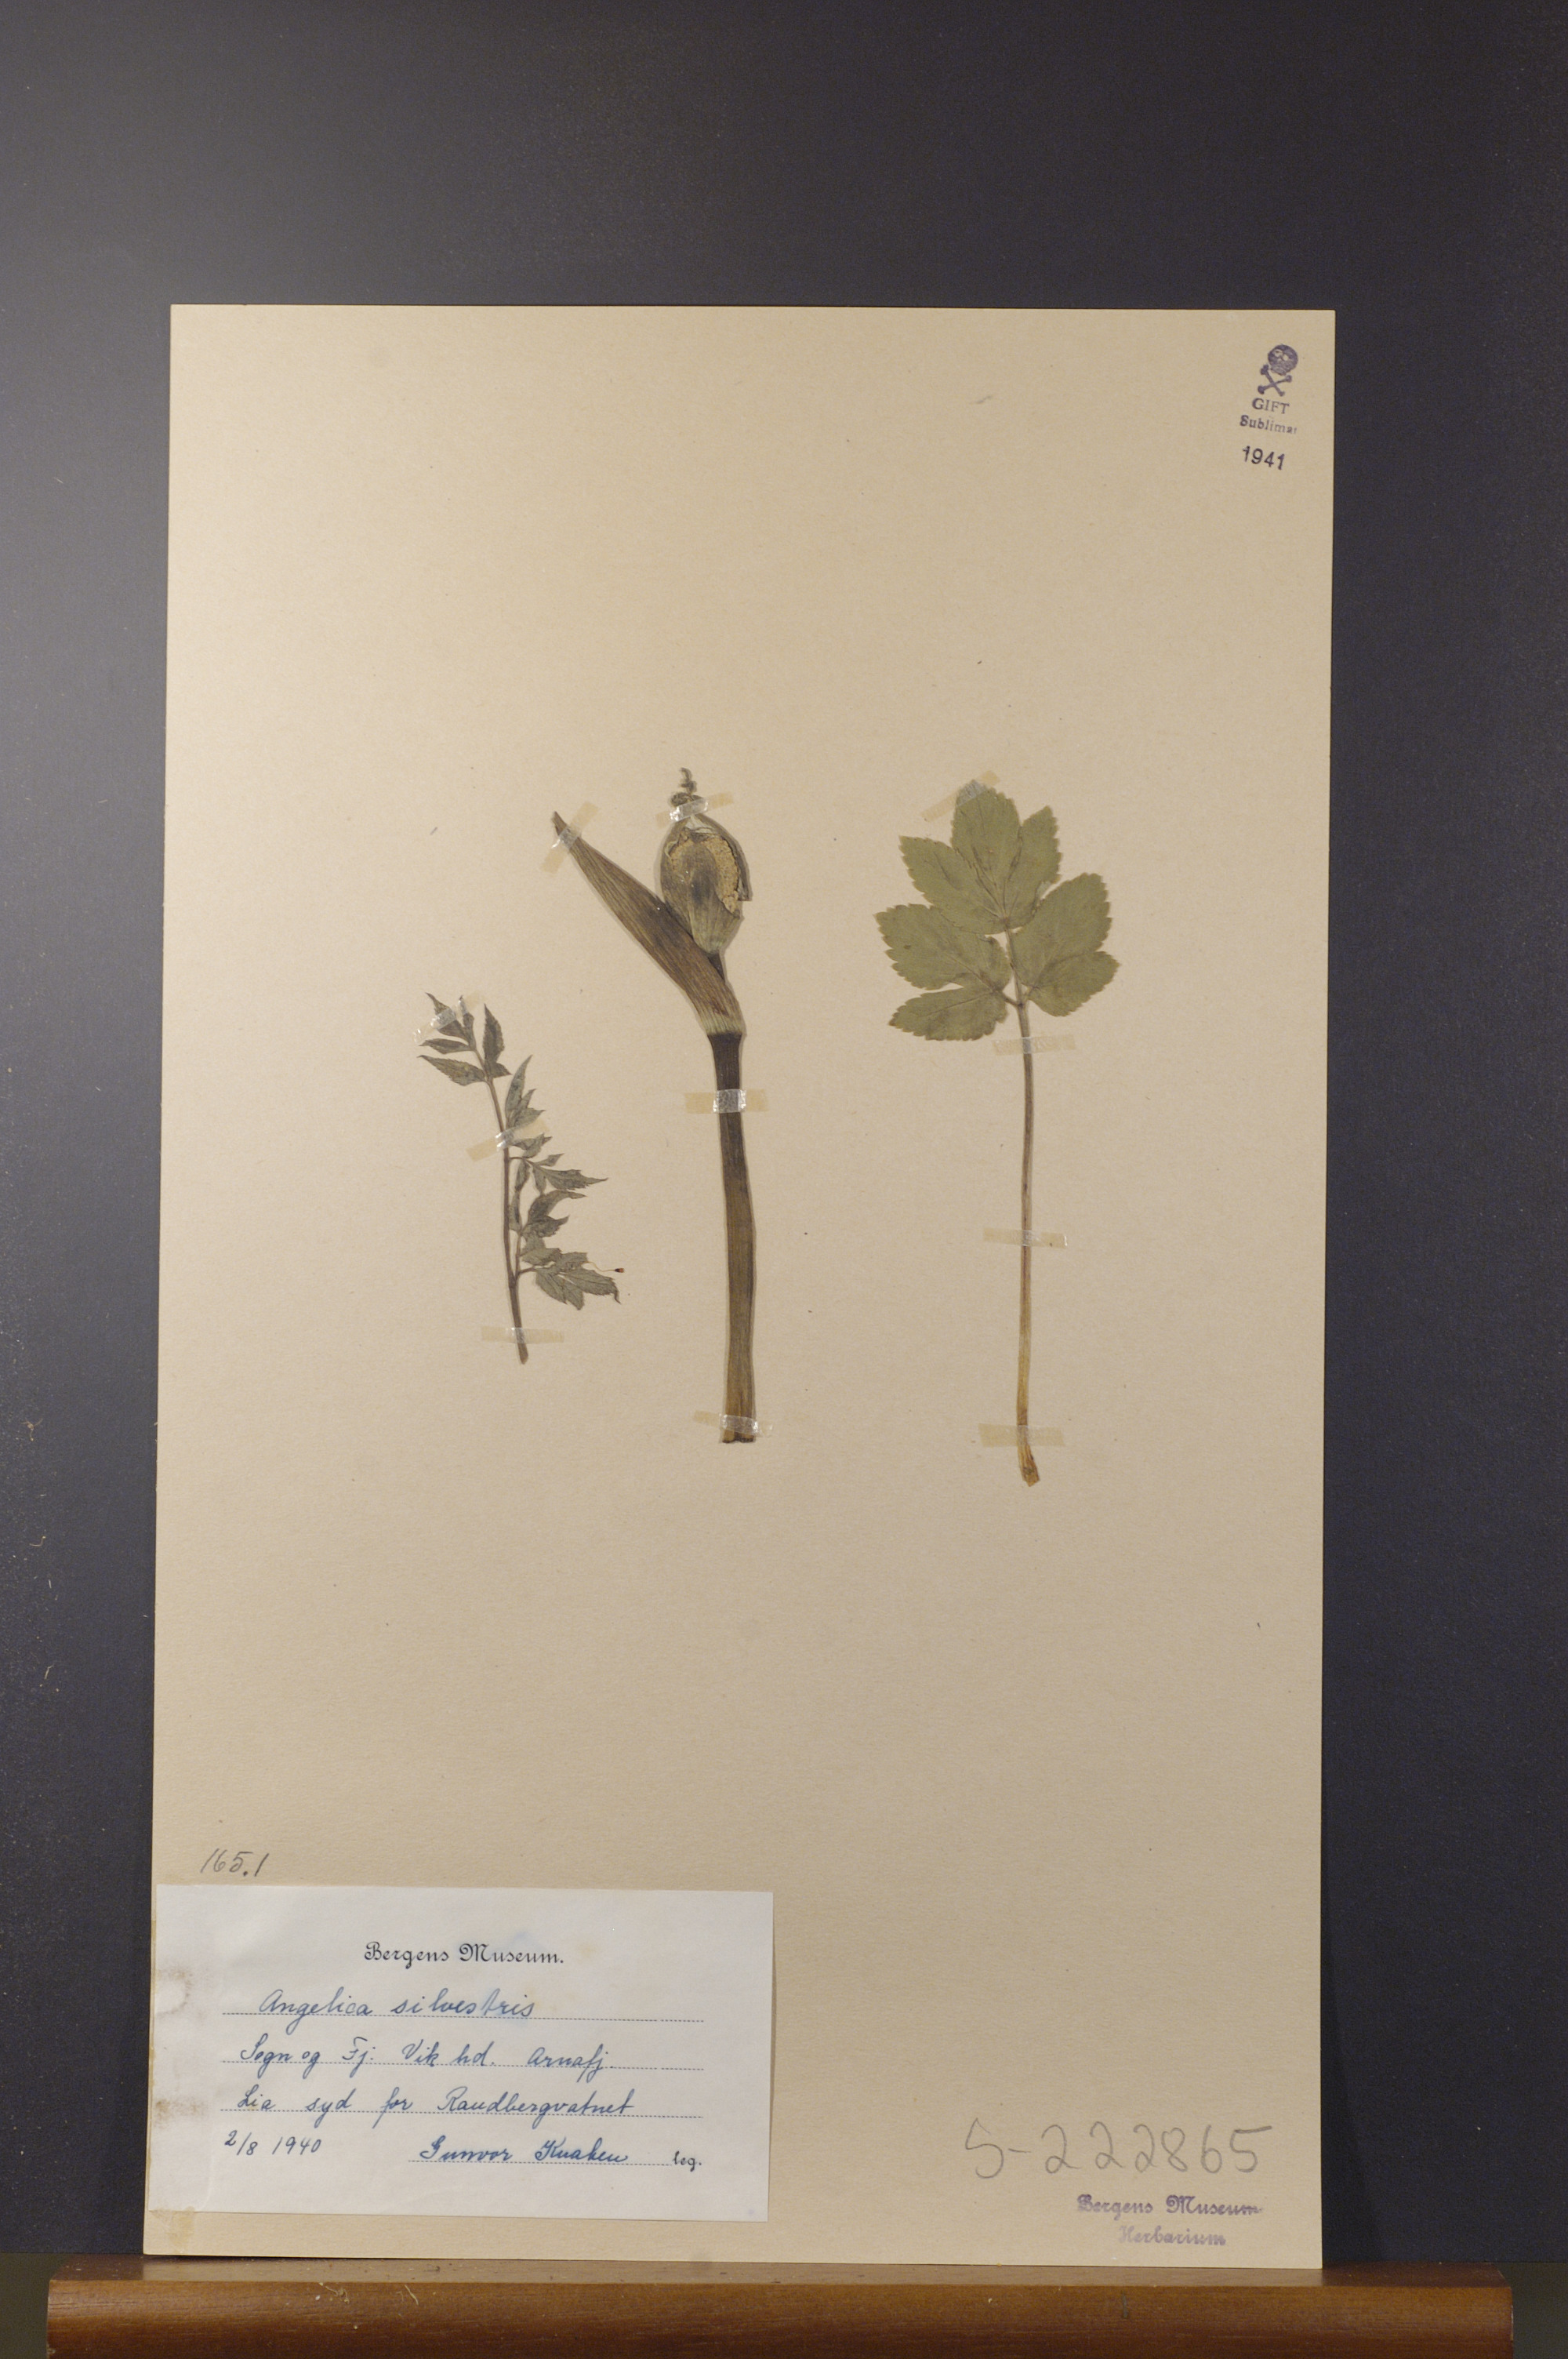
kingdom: Plantae
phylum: Tracheophyta
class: Magnoliopsida
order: Apiales
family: Apiaceae
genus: Angelica
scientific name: Angelica sylvestris
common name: Wild angelica
